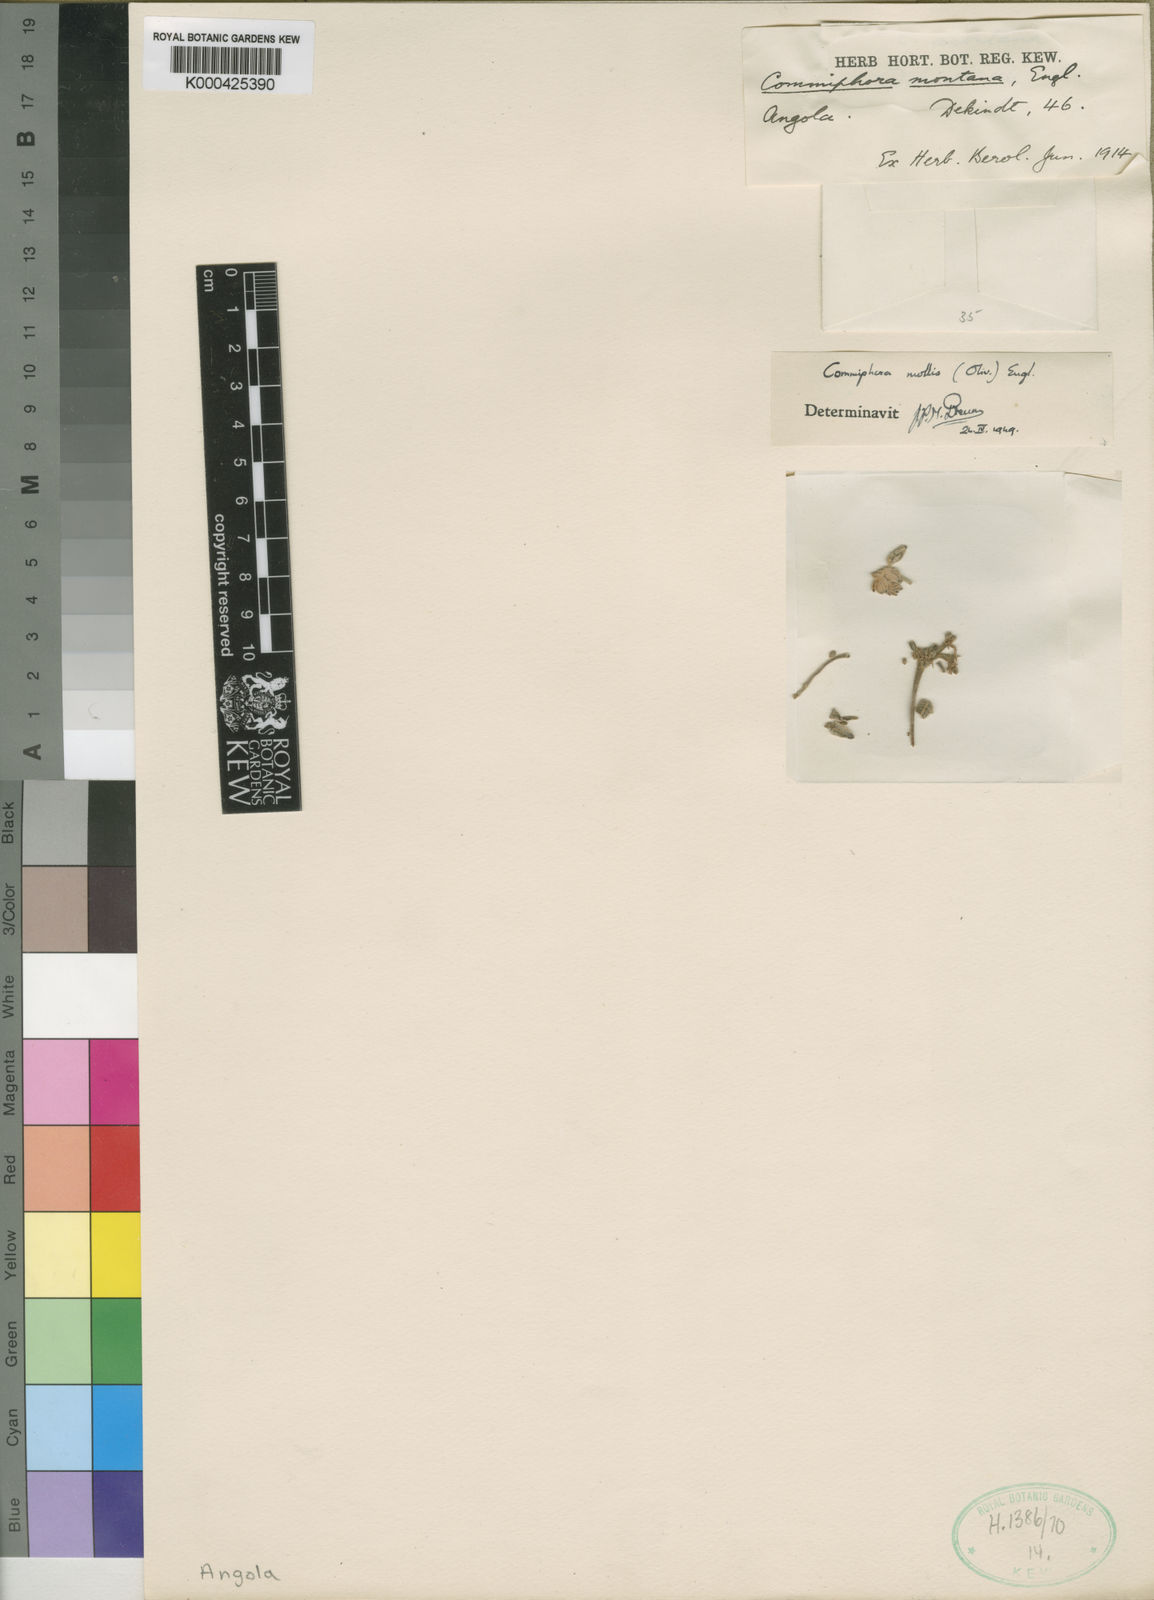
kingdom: Plantae
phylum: Tracheophyta
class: Magnoliopsida
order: Sapindales
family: Burseraceae
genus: Commiphora
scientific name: Commiphora mollis
